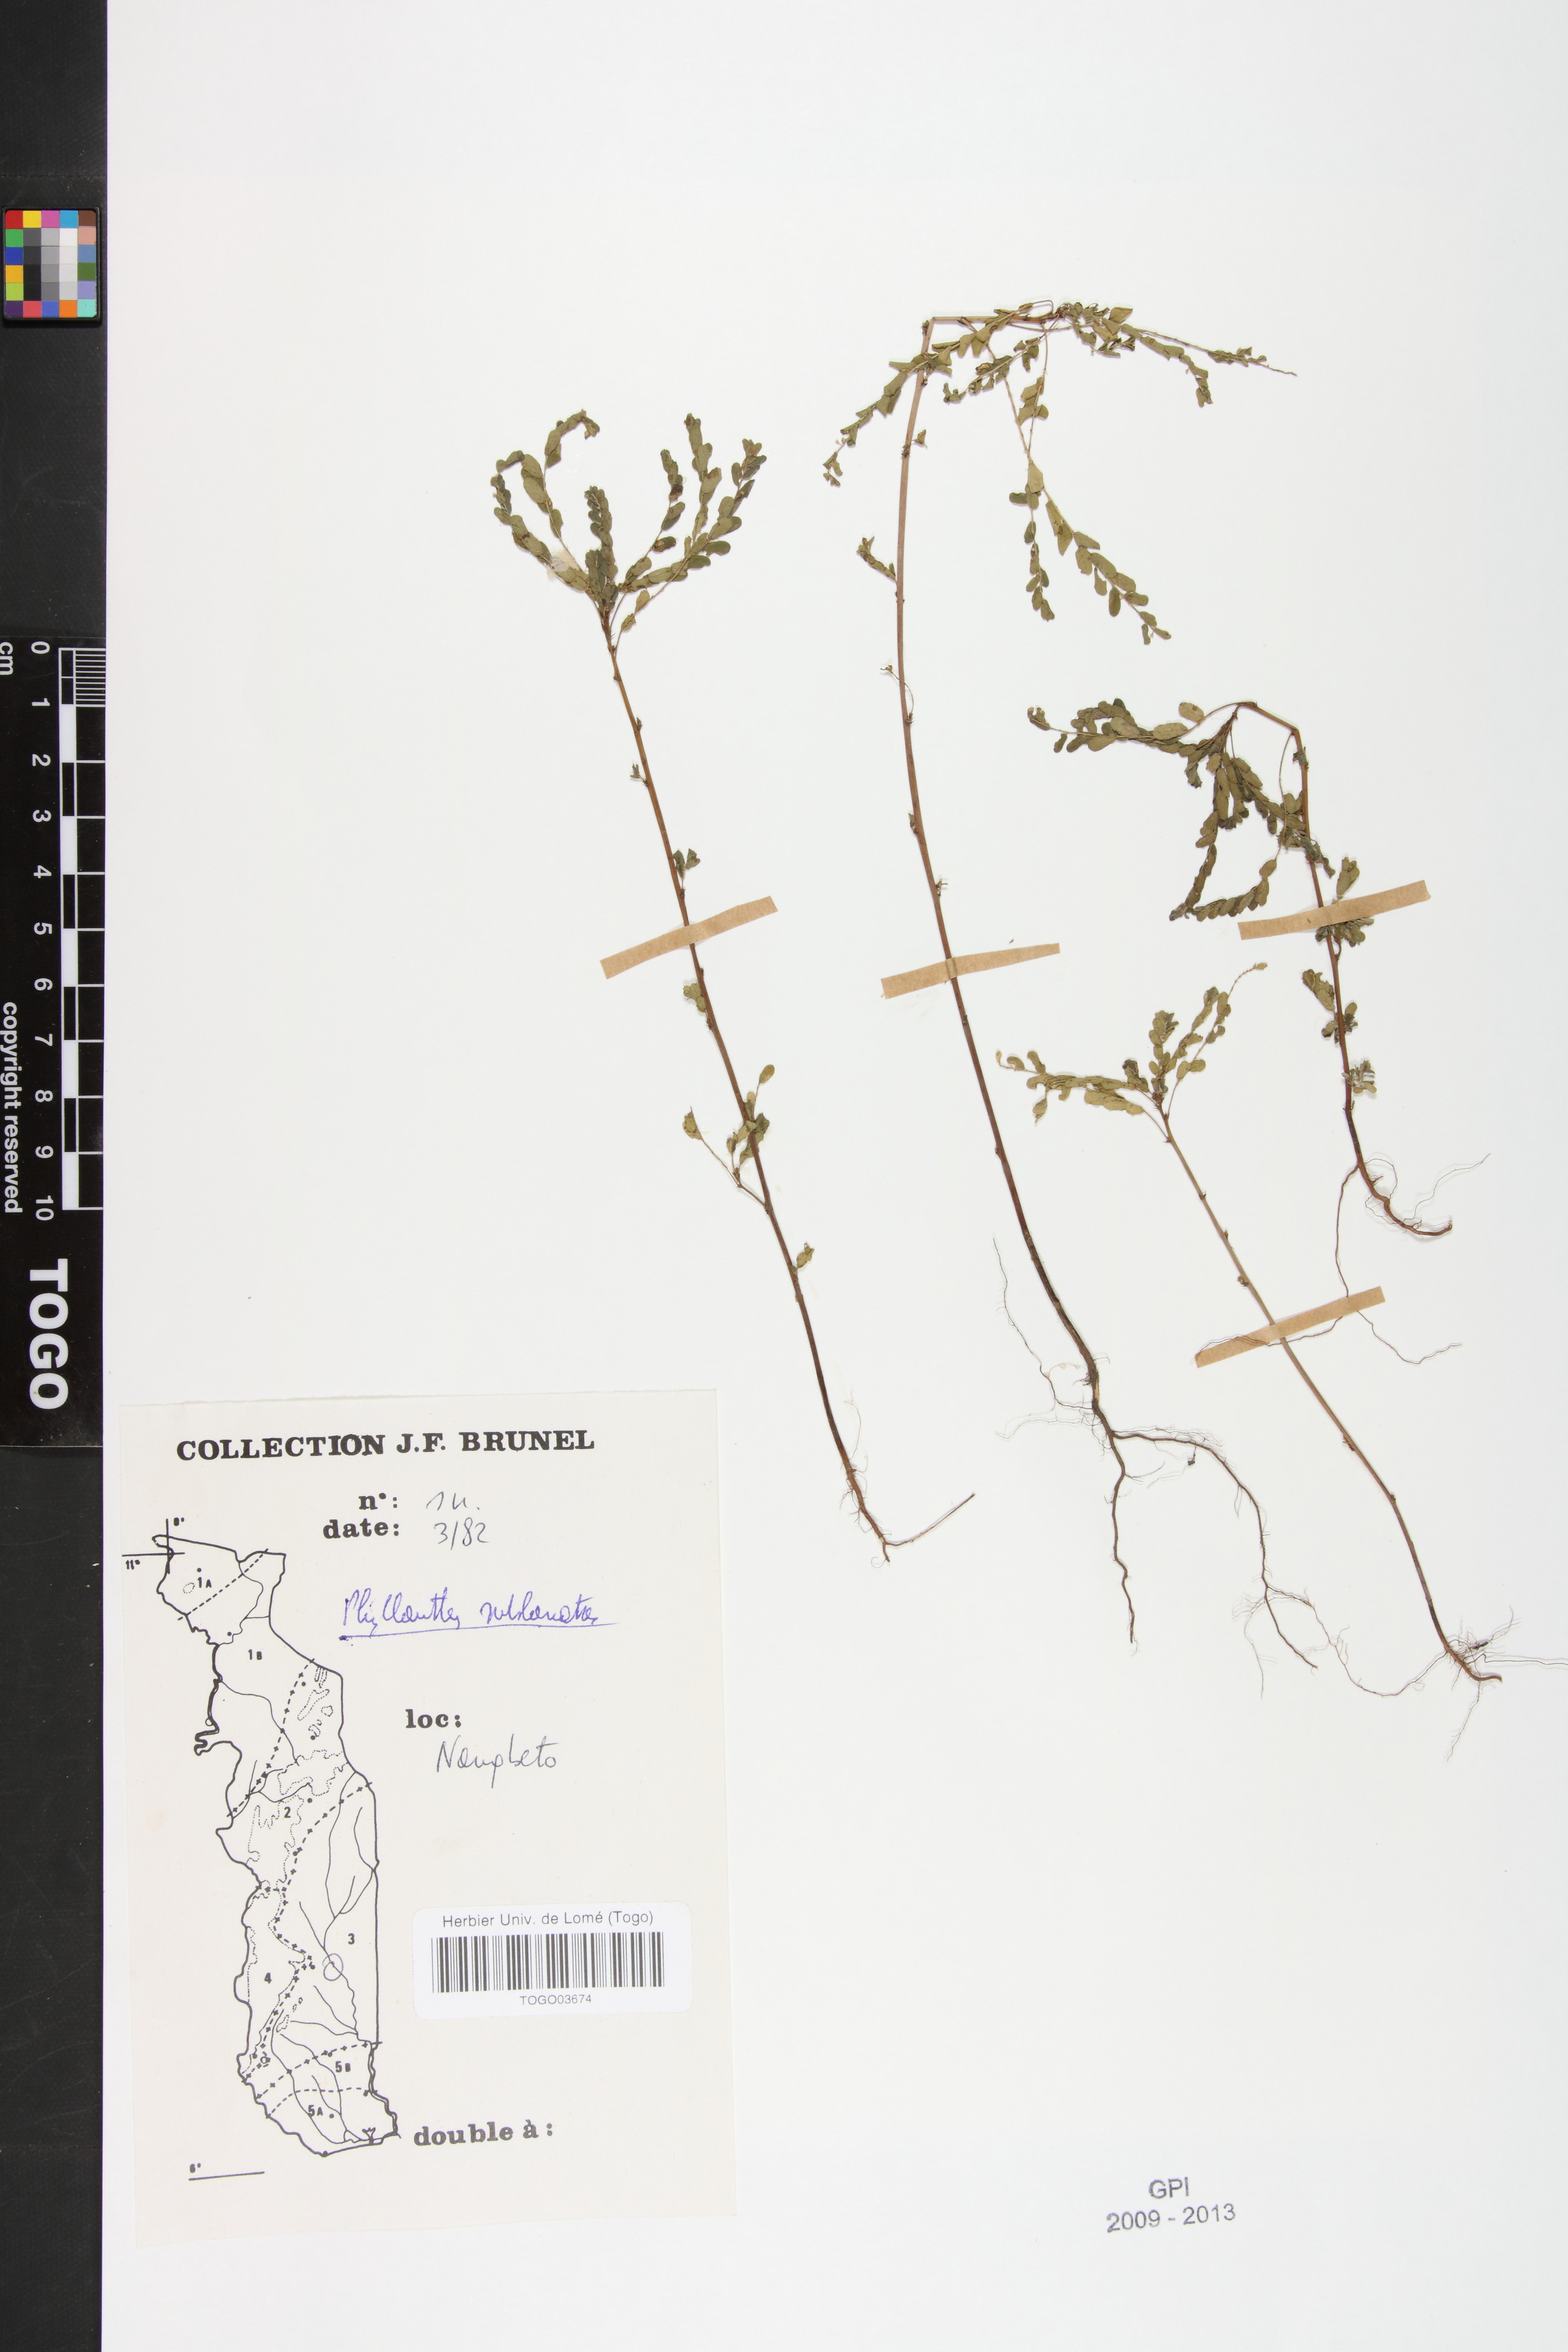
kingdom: Plantae
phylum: Tracheophyta
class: Magnoliopsida
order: Malpighiales
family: Phyllanthaceae
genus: Phyllanthus
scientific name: Phyllanthus sublanatus
